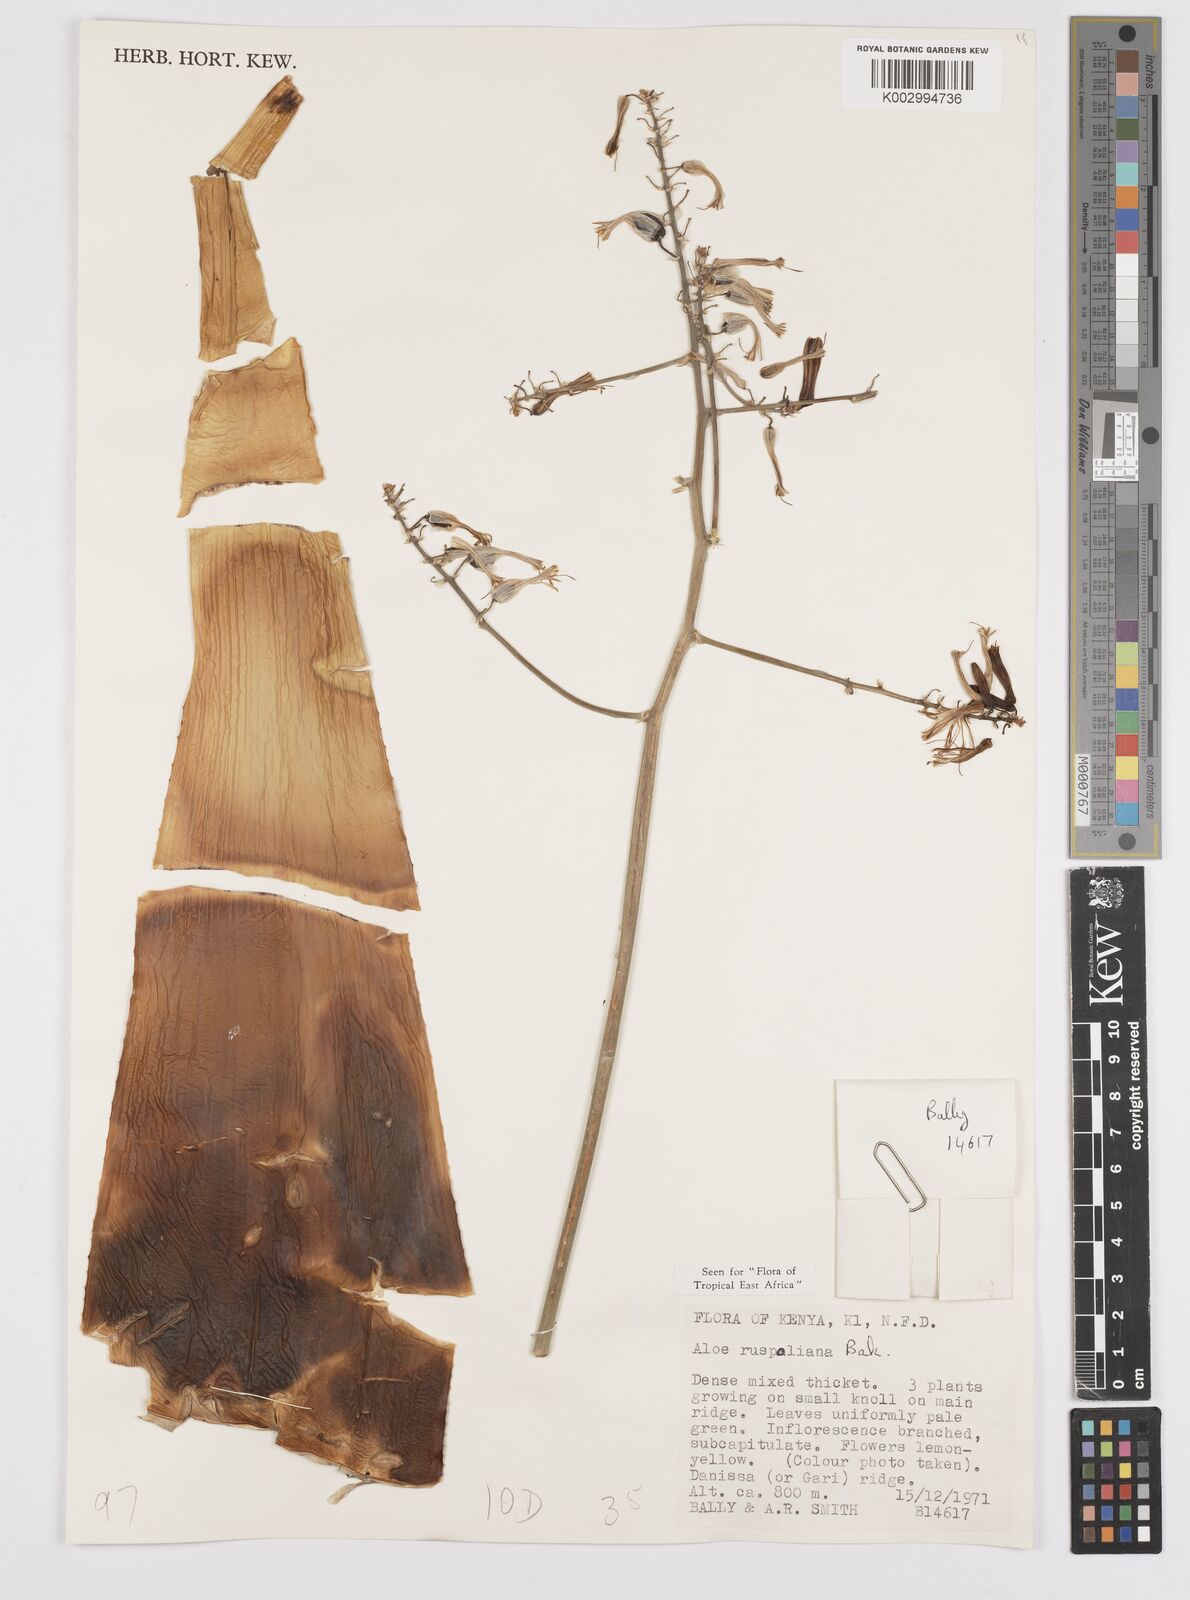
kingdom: Plantae
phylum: Tracheophyta
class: Liliopsida
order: Asparagales
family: Asphodelaceae
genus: Aloe
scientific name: Aloe ruspoliana
